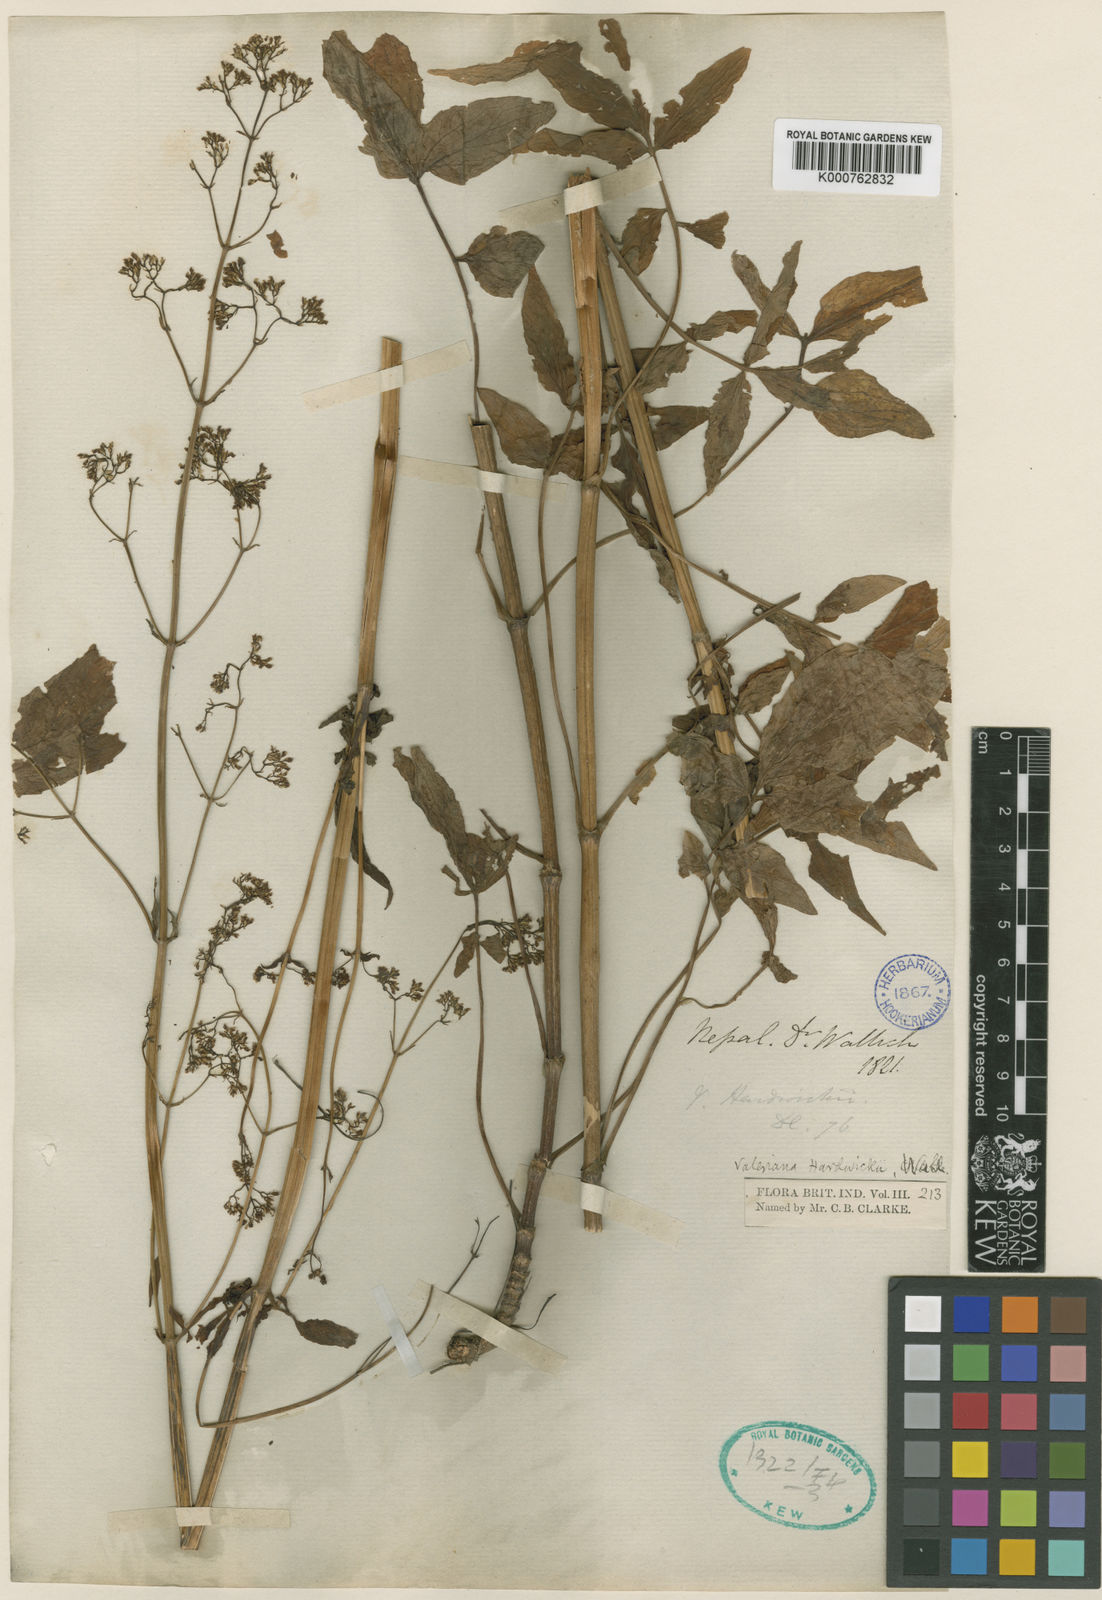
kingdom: Plantae
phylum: Tracheophyta
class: Magnoliopsida
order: Dipsacales
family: Caprifoliaceae
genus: Valeriana
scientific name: Valeriana hardwickei
